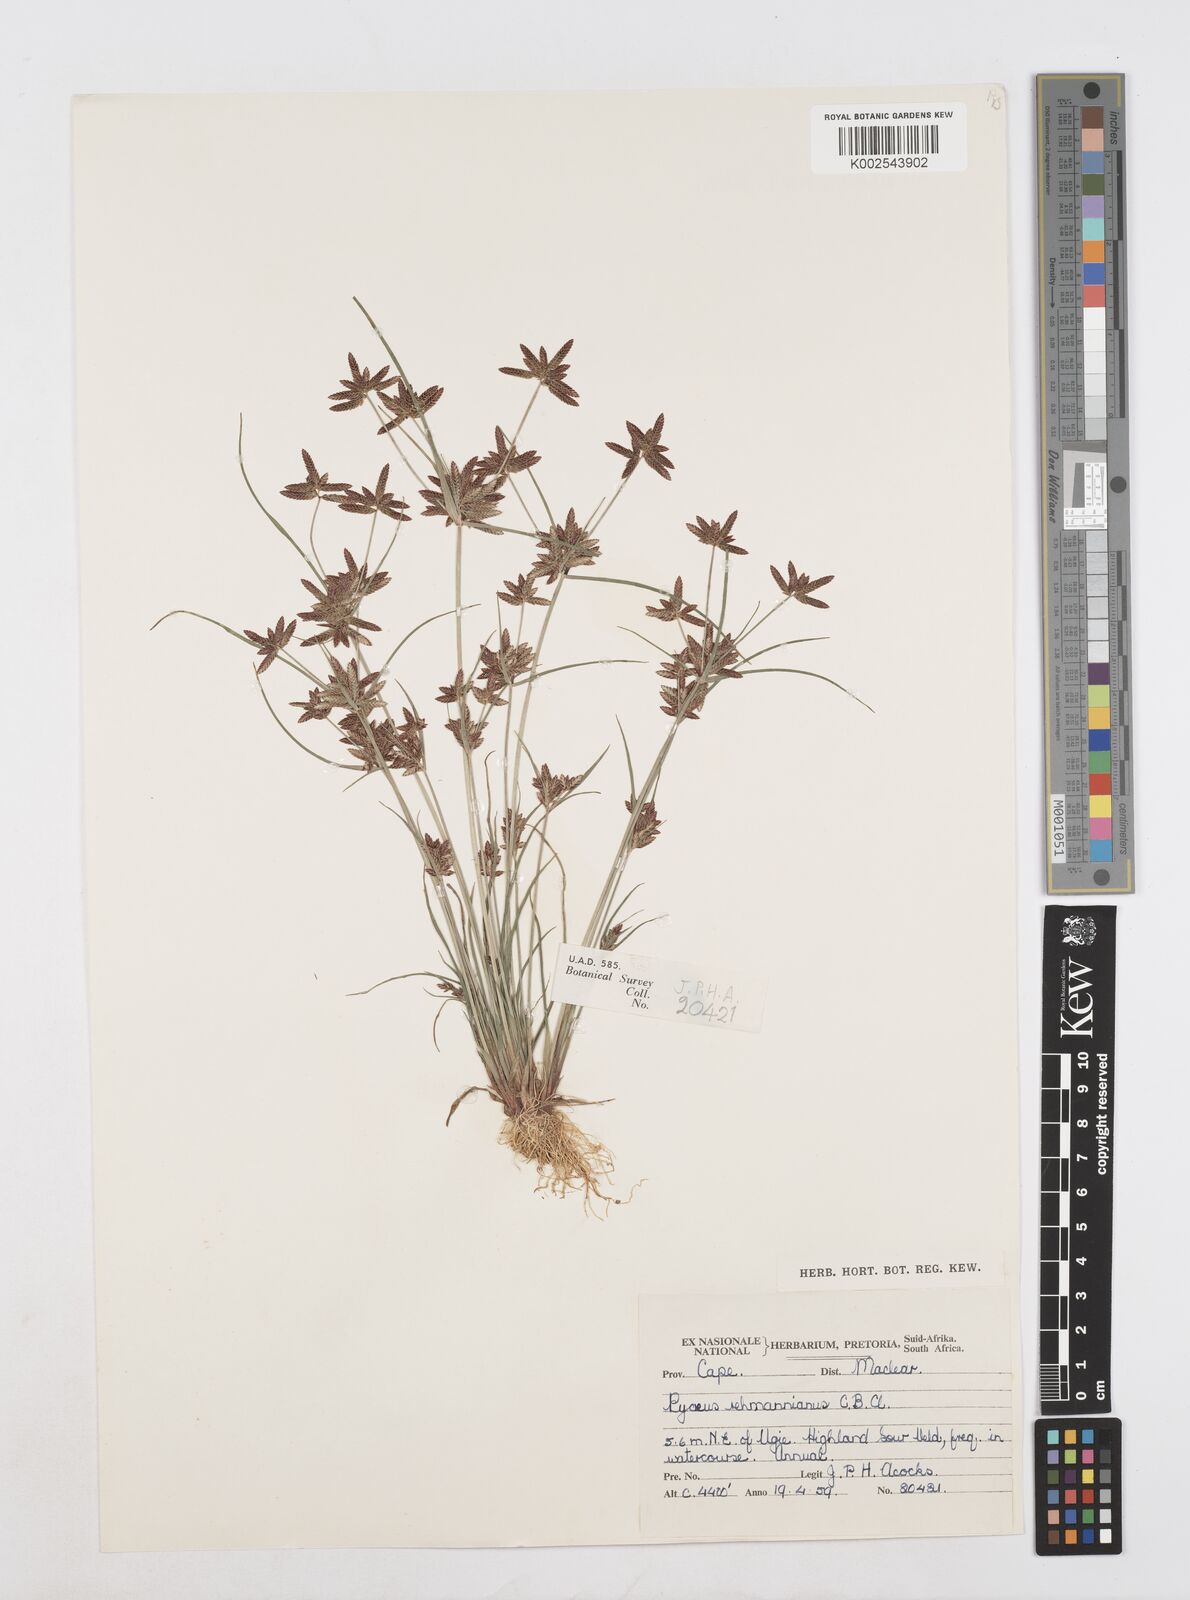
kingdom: Plantae
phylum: Tracheophyta
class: Liliopsida
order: Poales
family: Cyperaceae
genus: Cyperus
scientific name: Cyperus flavescens
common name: Yellow galingale
